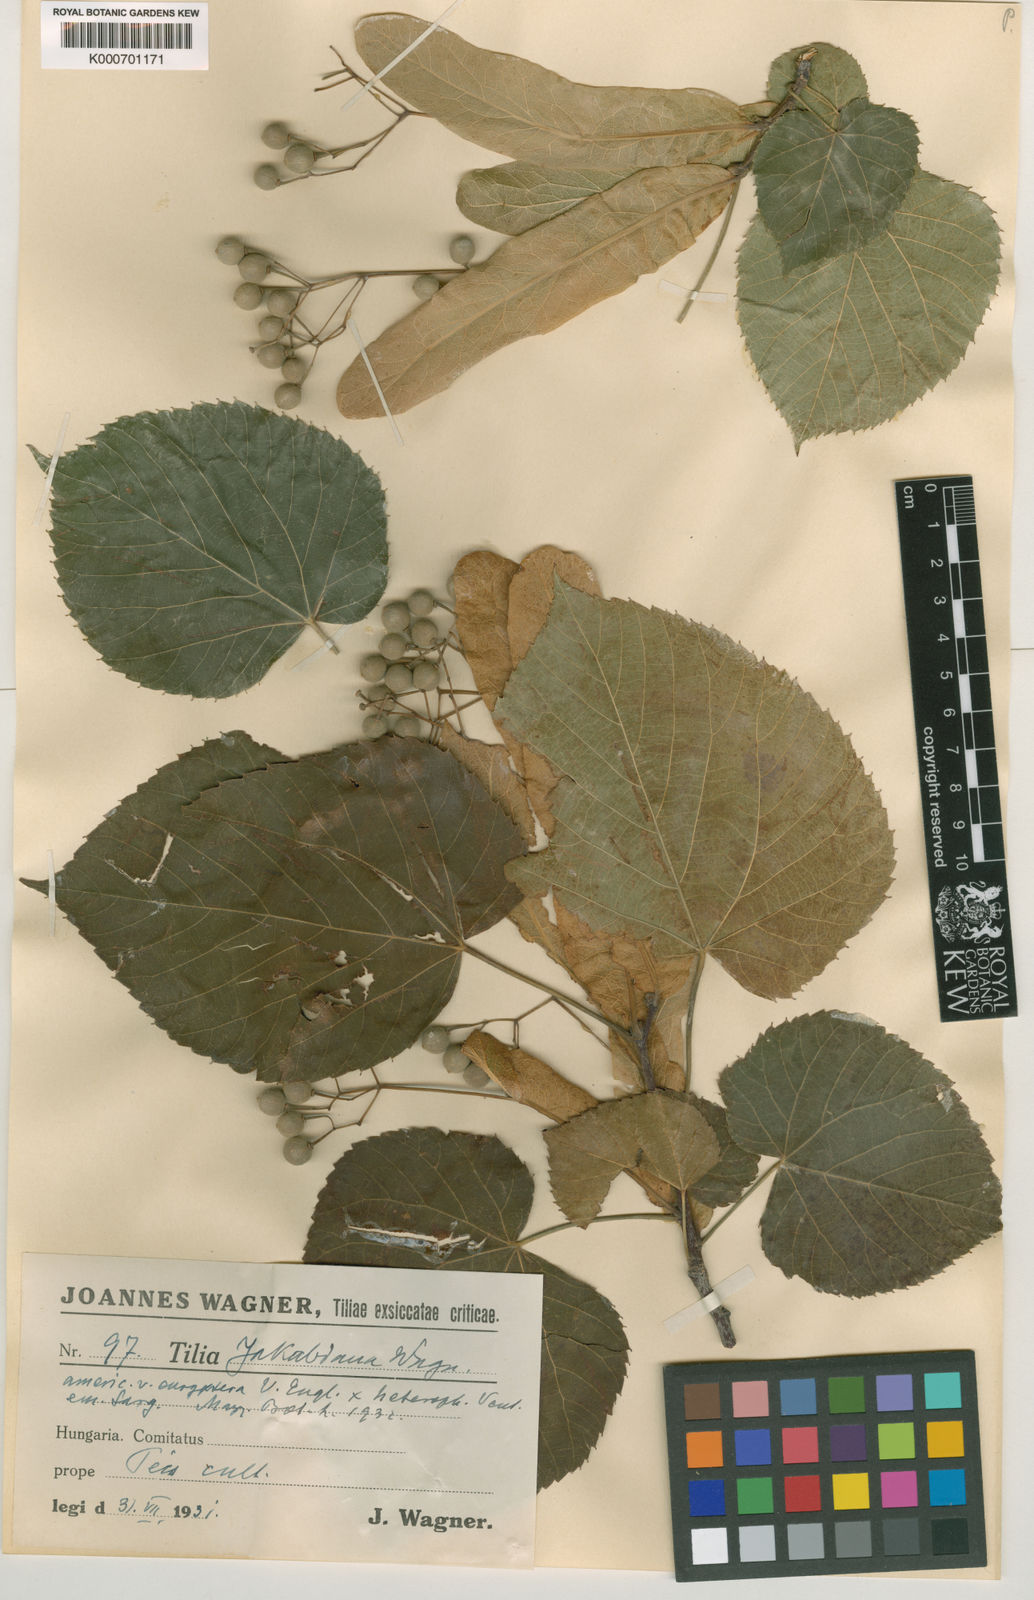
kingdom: Plantae
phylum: Tracheophyta
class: Magnoliopsida
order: Malvales
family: Malvaceae
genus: Tilia
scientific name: Tilia
